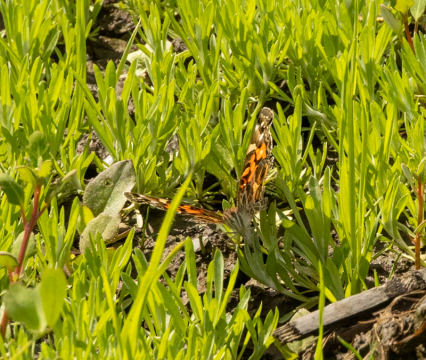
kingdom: Animalia
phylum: Arthropoda
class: Insecta
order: Lepidoptera
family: Nymphalidae
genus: Vanessa
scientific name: Vanessa virginiensis
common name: American Lady
